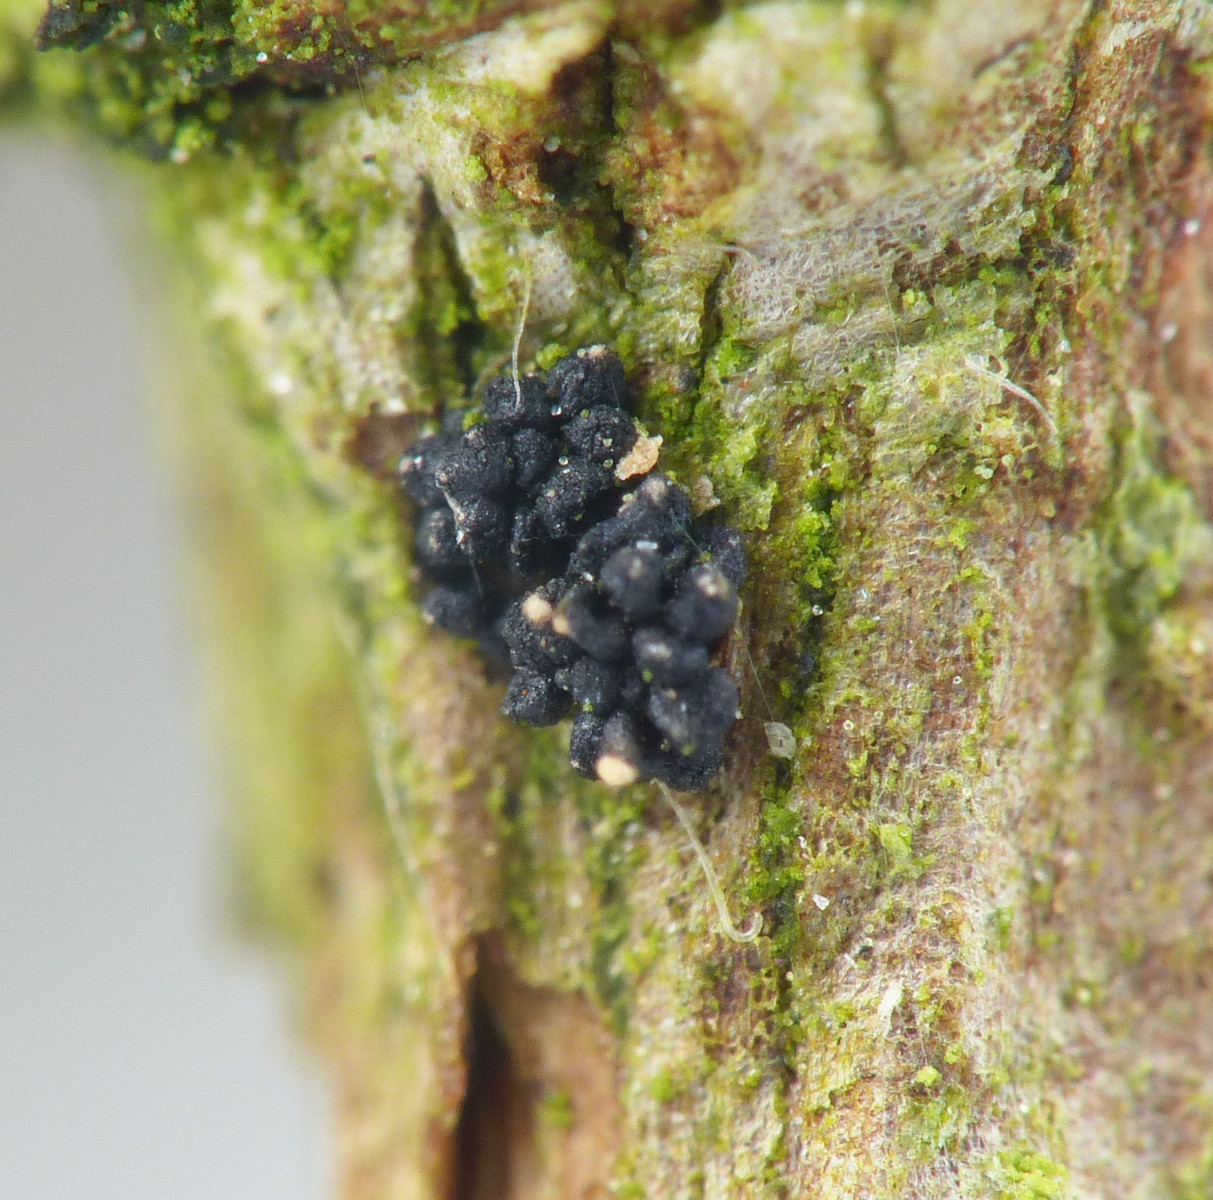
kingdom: Fungi
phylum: Ascomycota
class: Sordariomycetes
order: Hypocreales
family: Nectriaceae
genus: Fusarium
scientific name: Fusarium roseum
